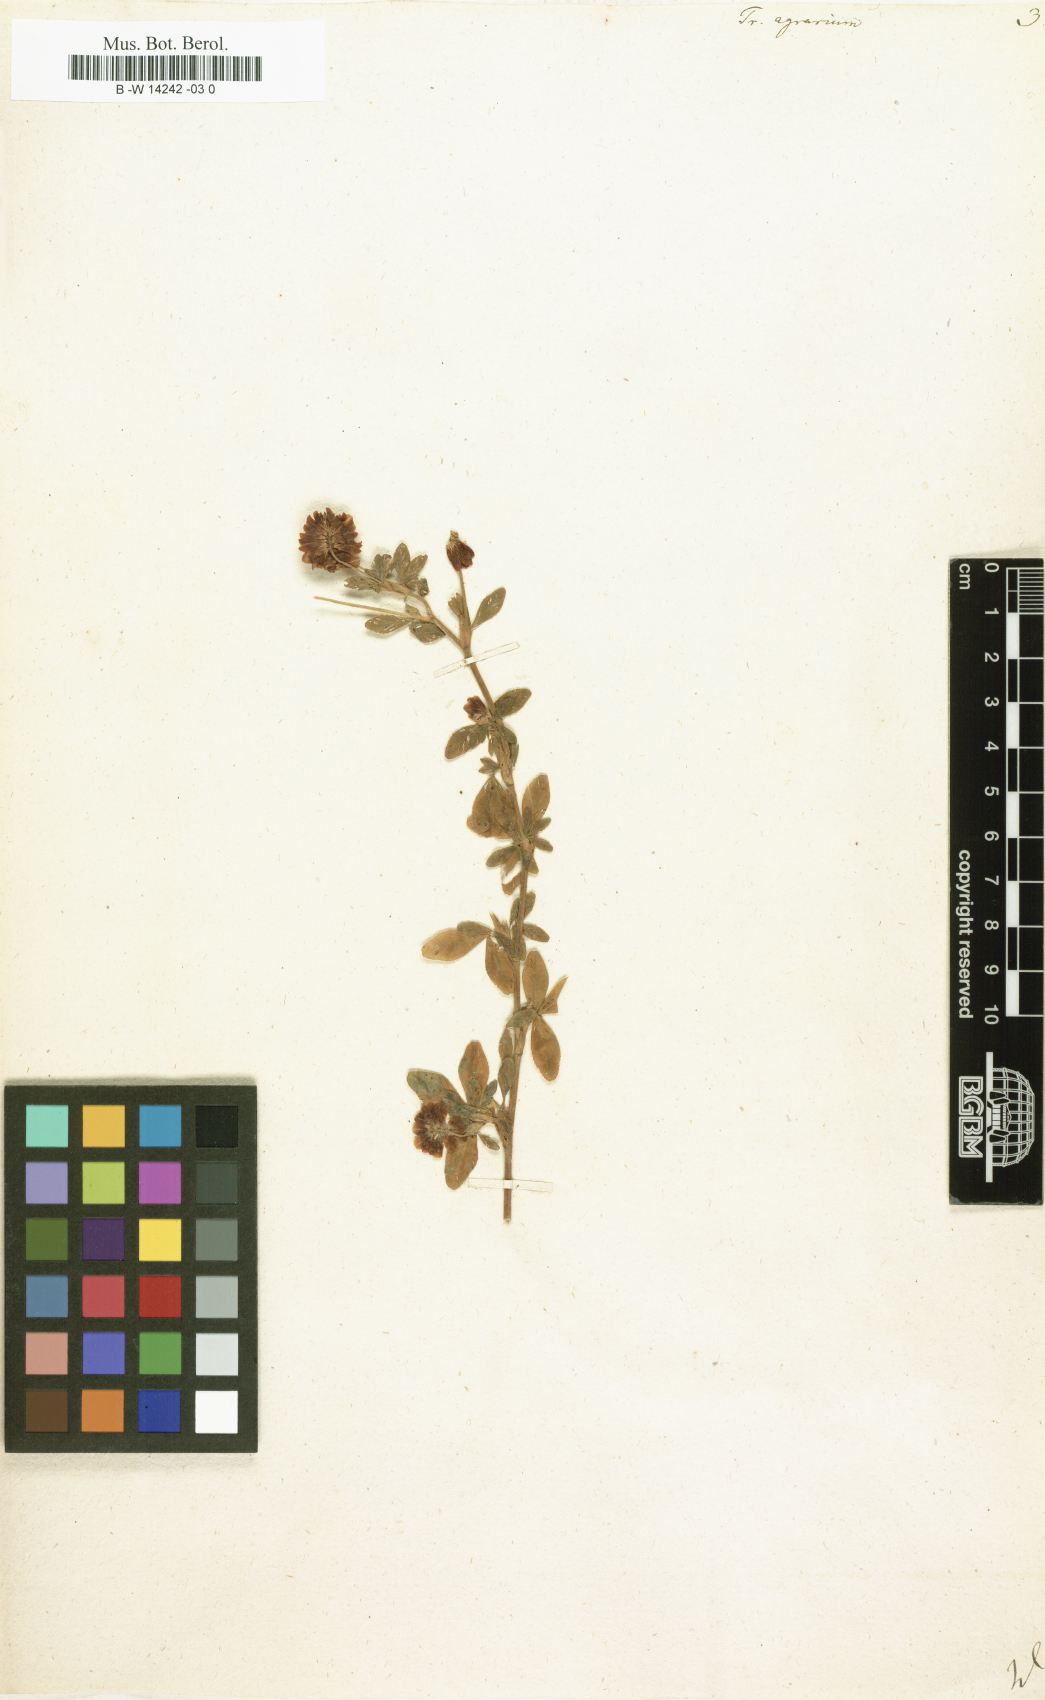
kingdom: Plantae
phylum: Tracheophyta
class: Magnoliopsida
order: Fabales
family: Fabaceae
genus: Trifolium
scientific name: Trifolium aureum
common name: Golden clover
